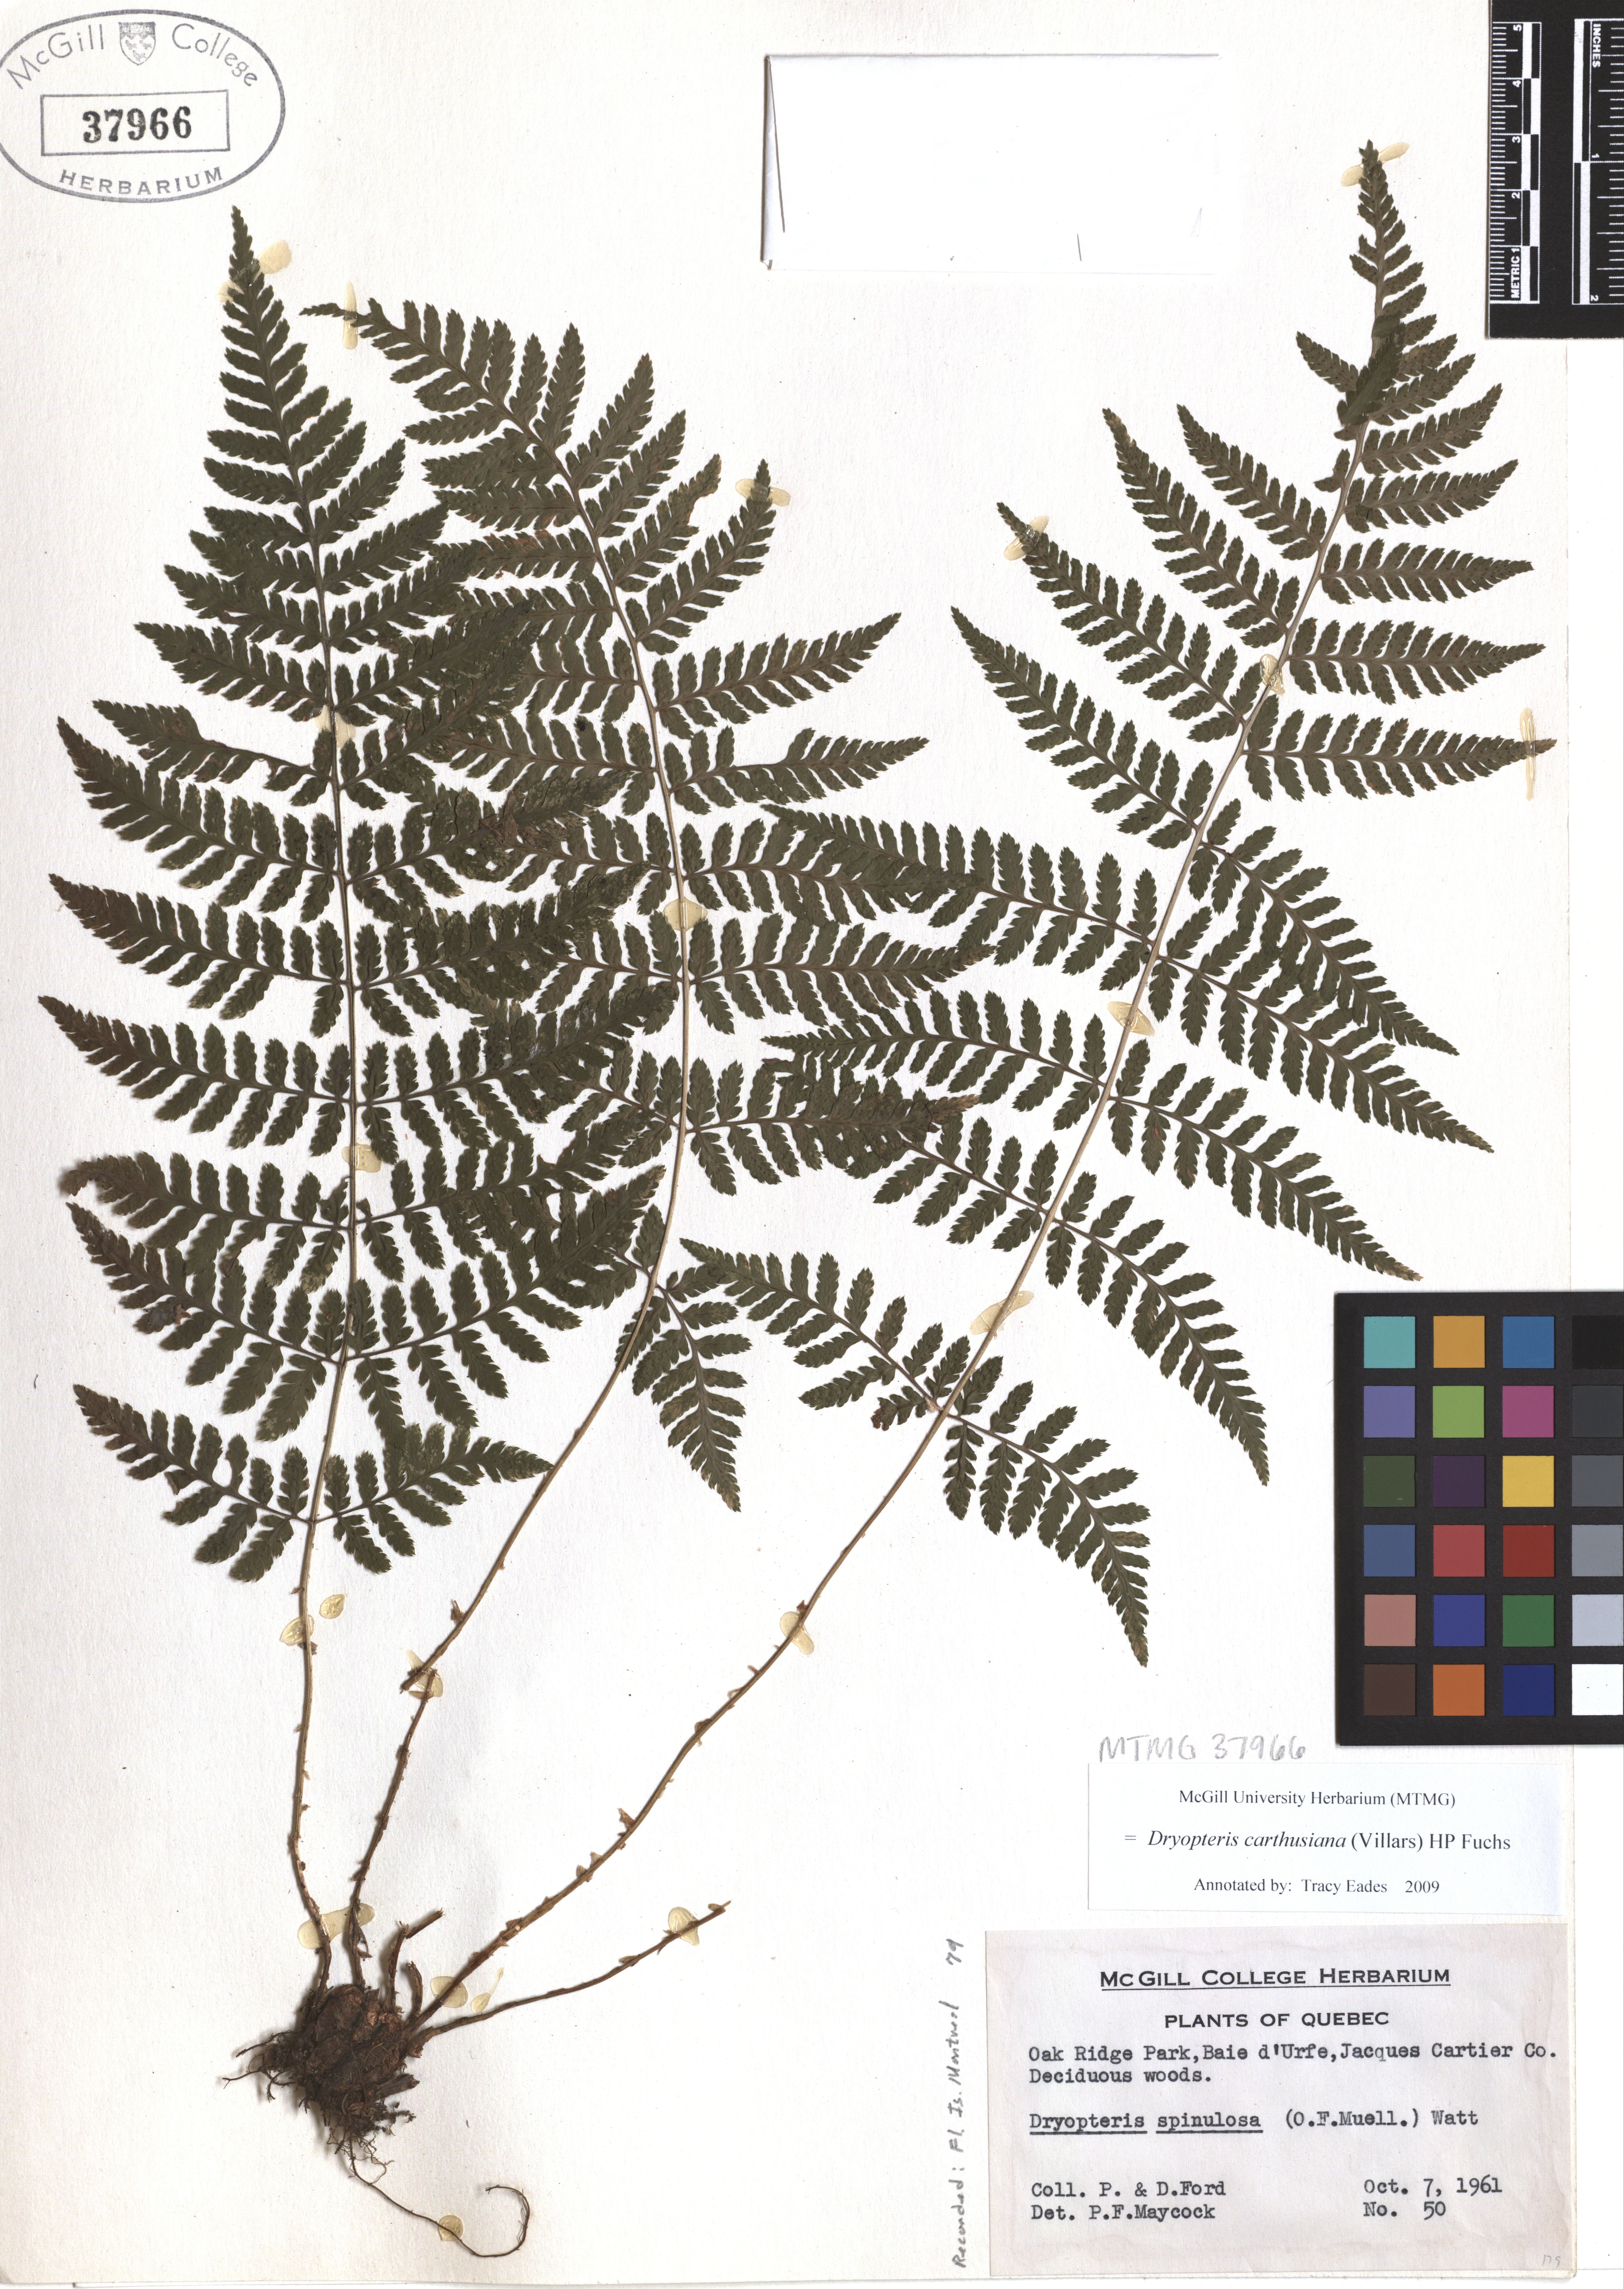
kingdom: Plantae
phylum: Tracheophyta
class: Polypodiopsida
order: Polypodiales
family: Dryopteridaceae
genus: Dryopteris
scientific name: Dryopteris carthusiana
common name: Narrow buckler-fern
